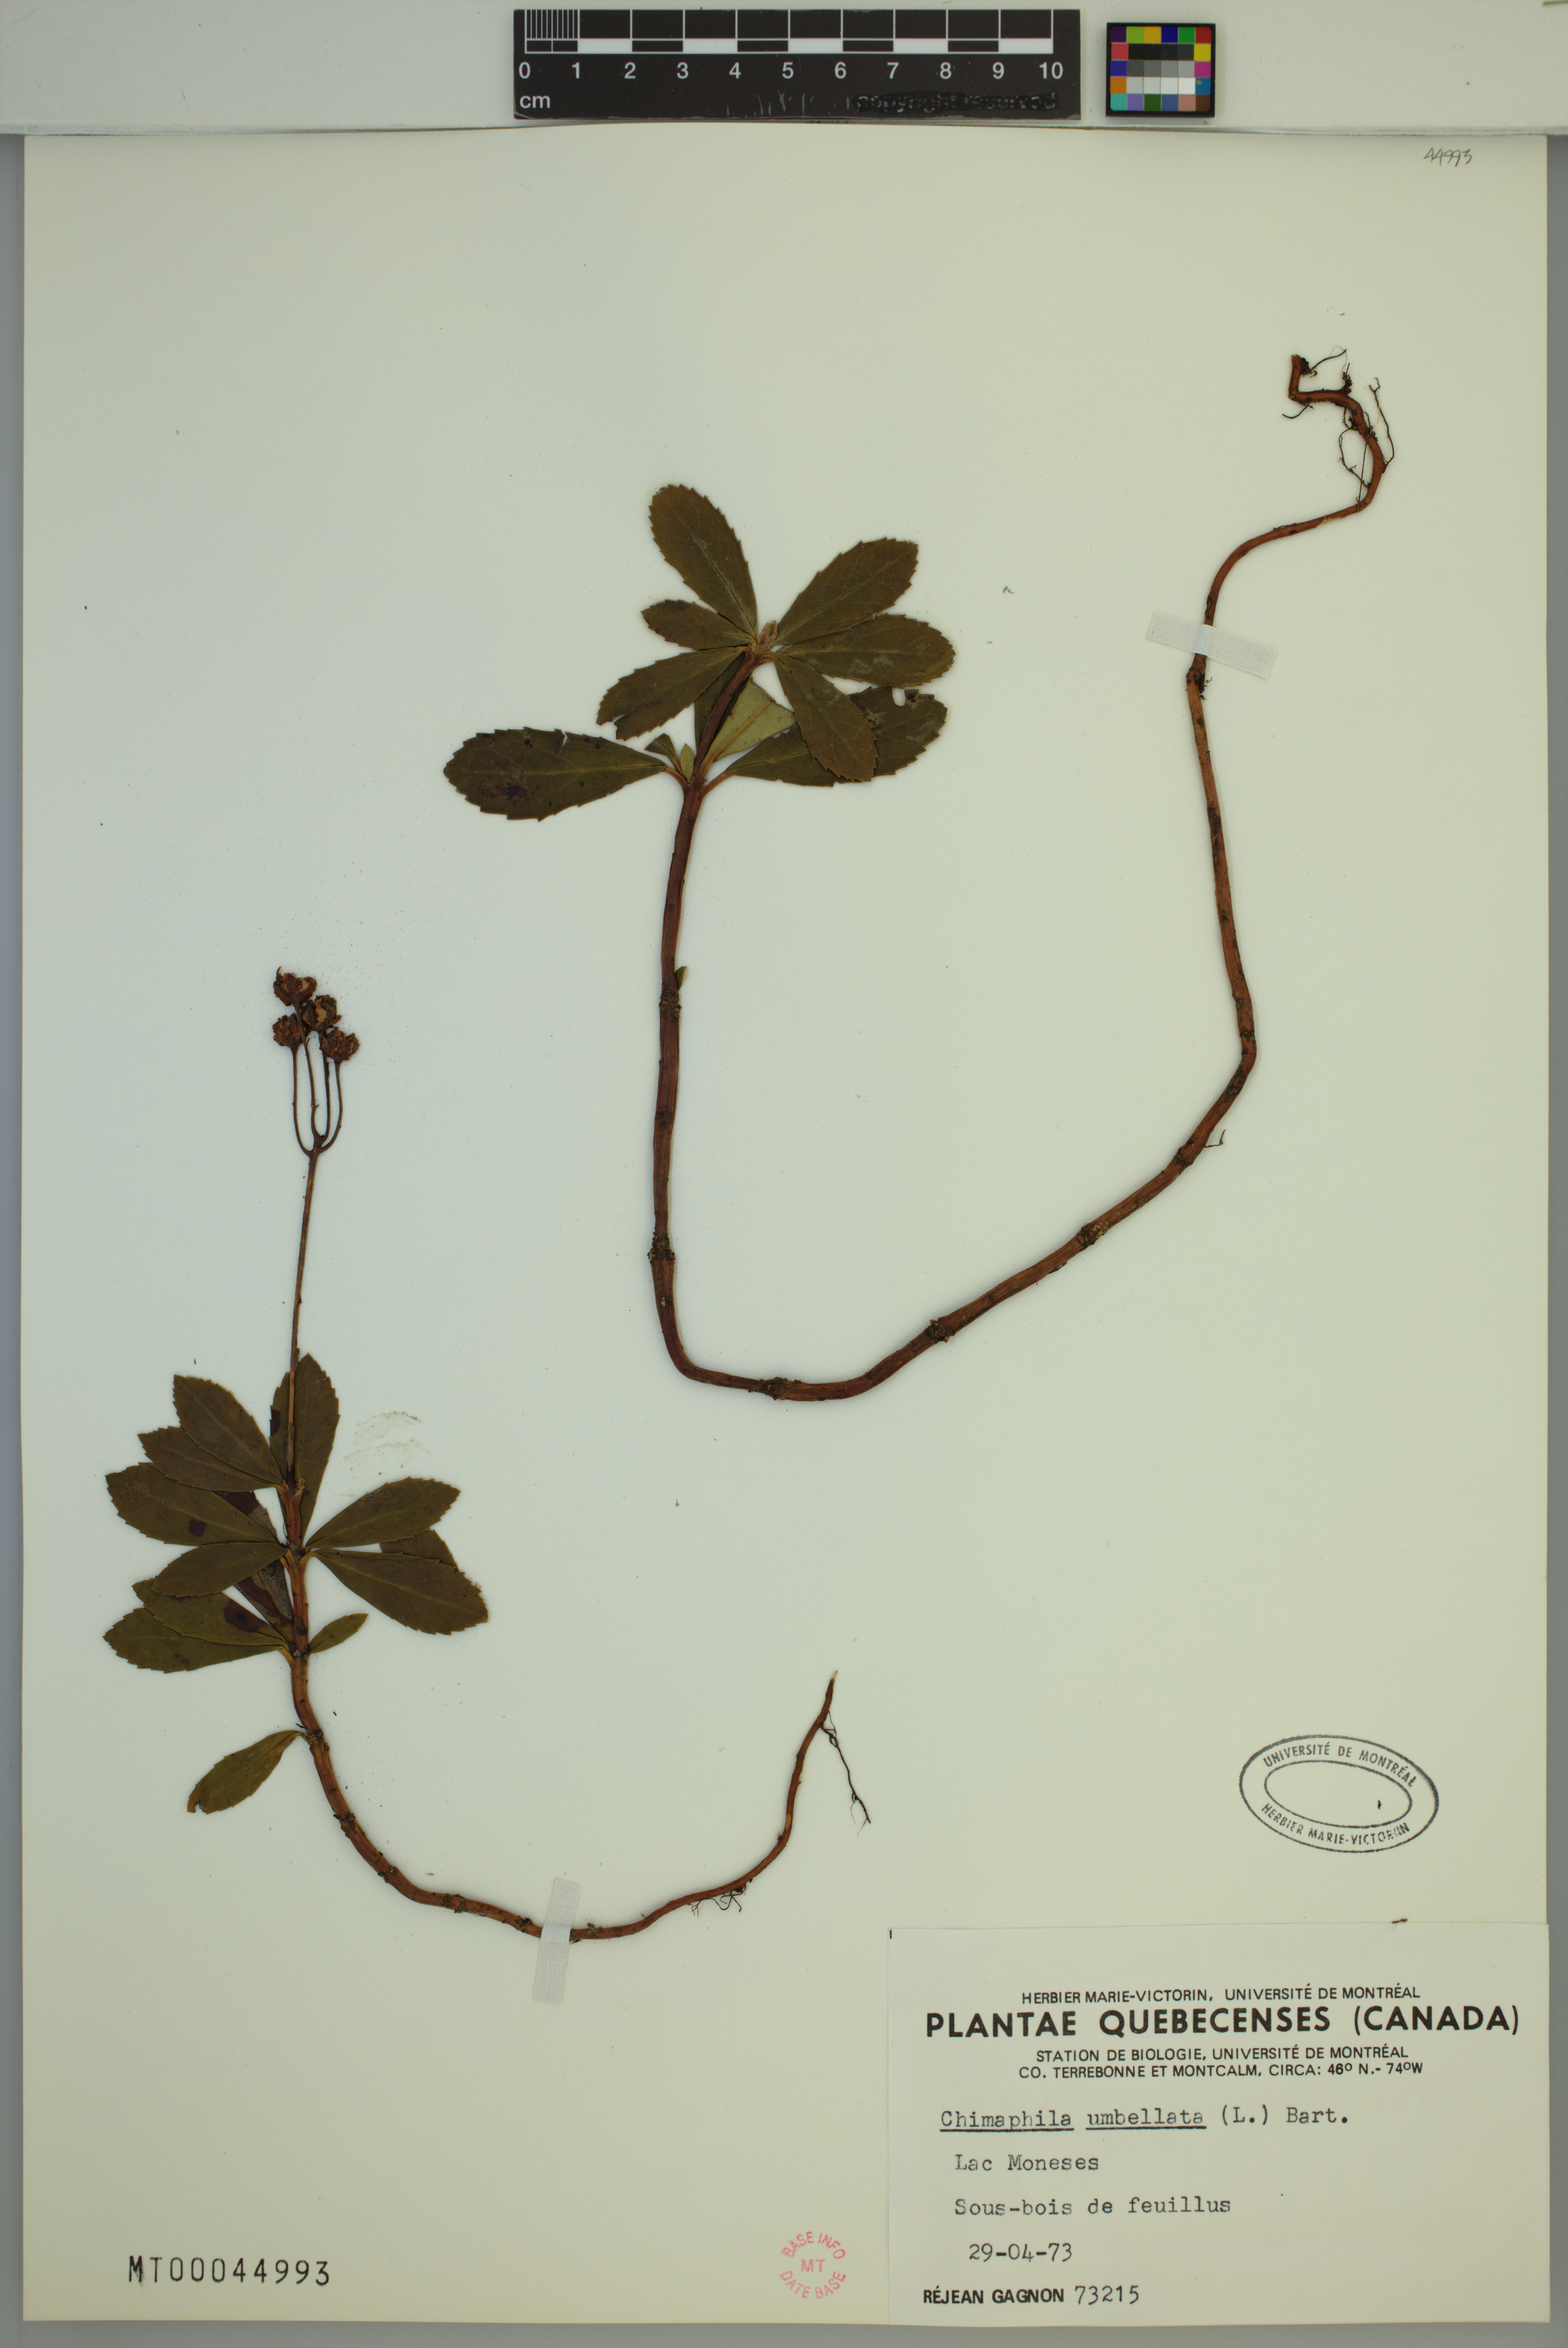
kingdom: Plantae
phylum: Tracheophyta
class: Magnoliopsida
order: Ericales
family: Ericaceae
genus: Chimaphila
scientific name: Chimaphila umbellata
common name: Pipsissewa
